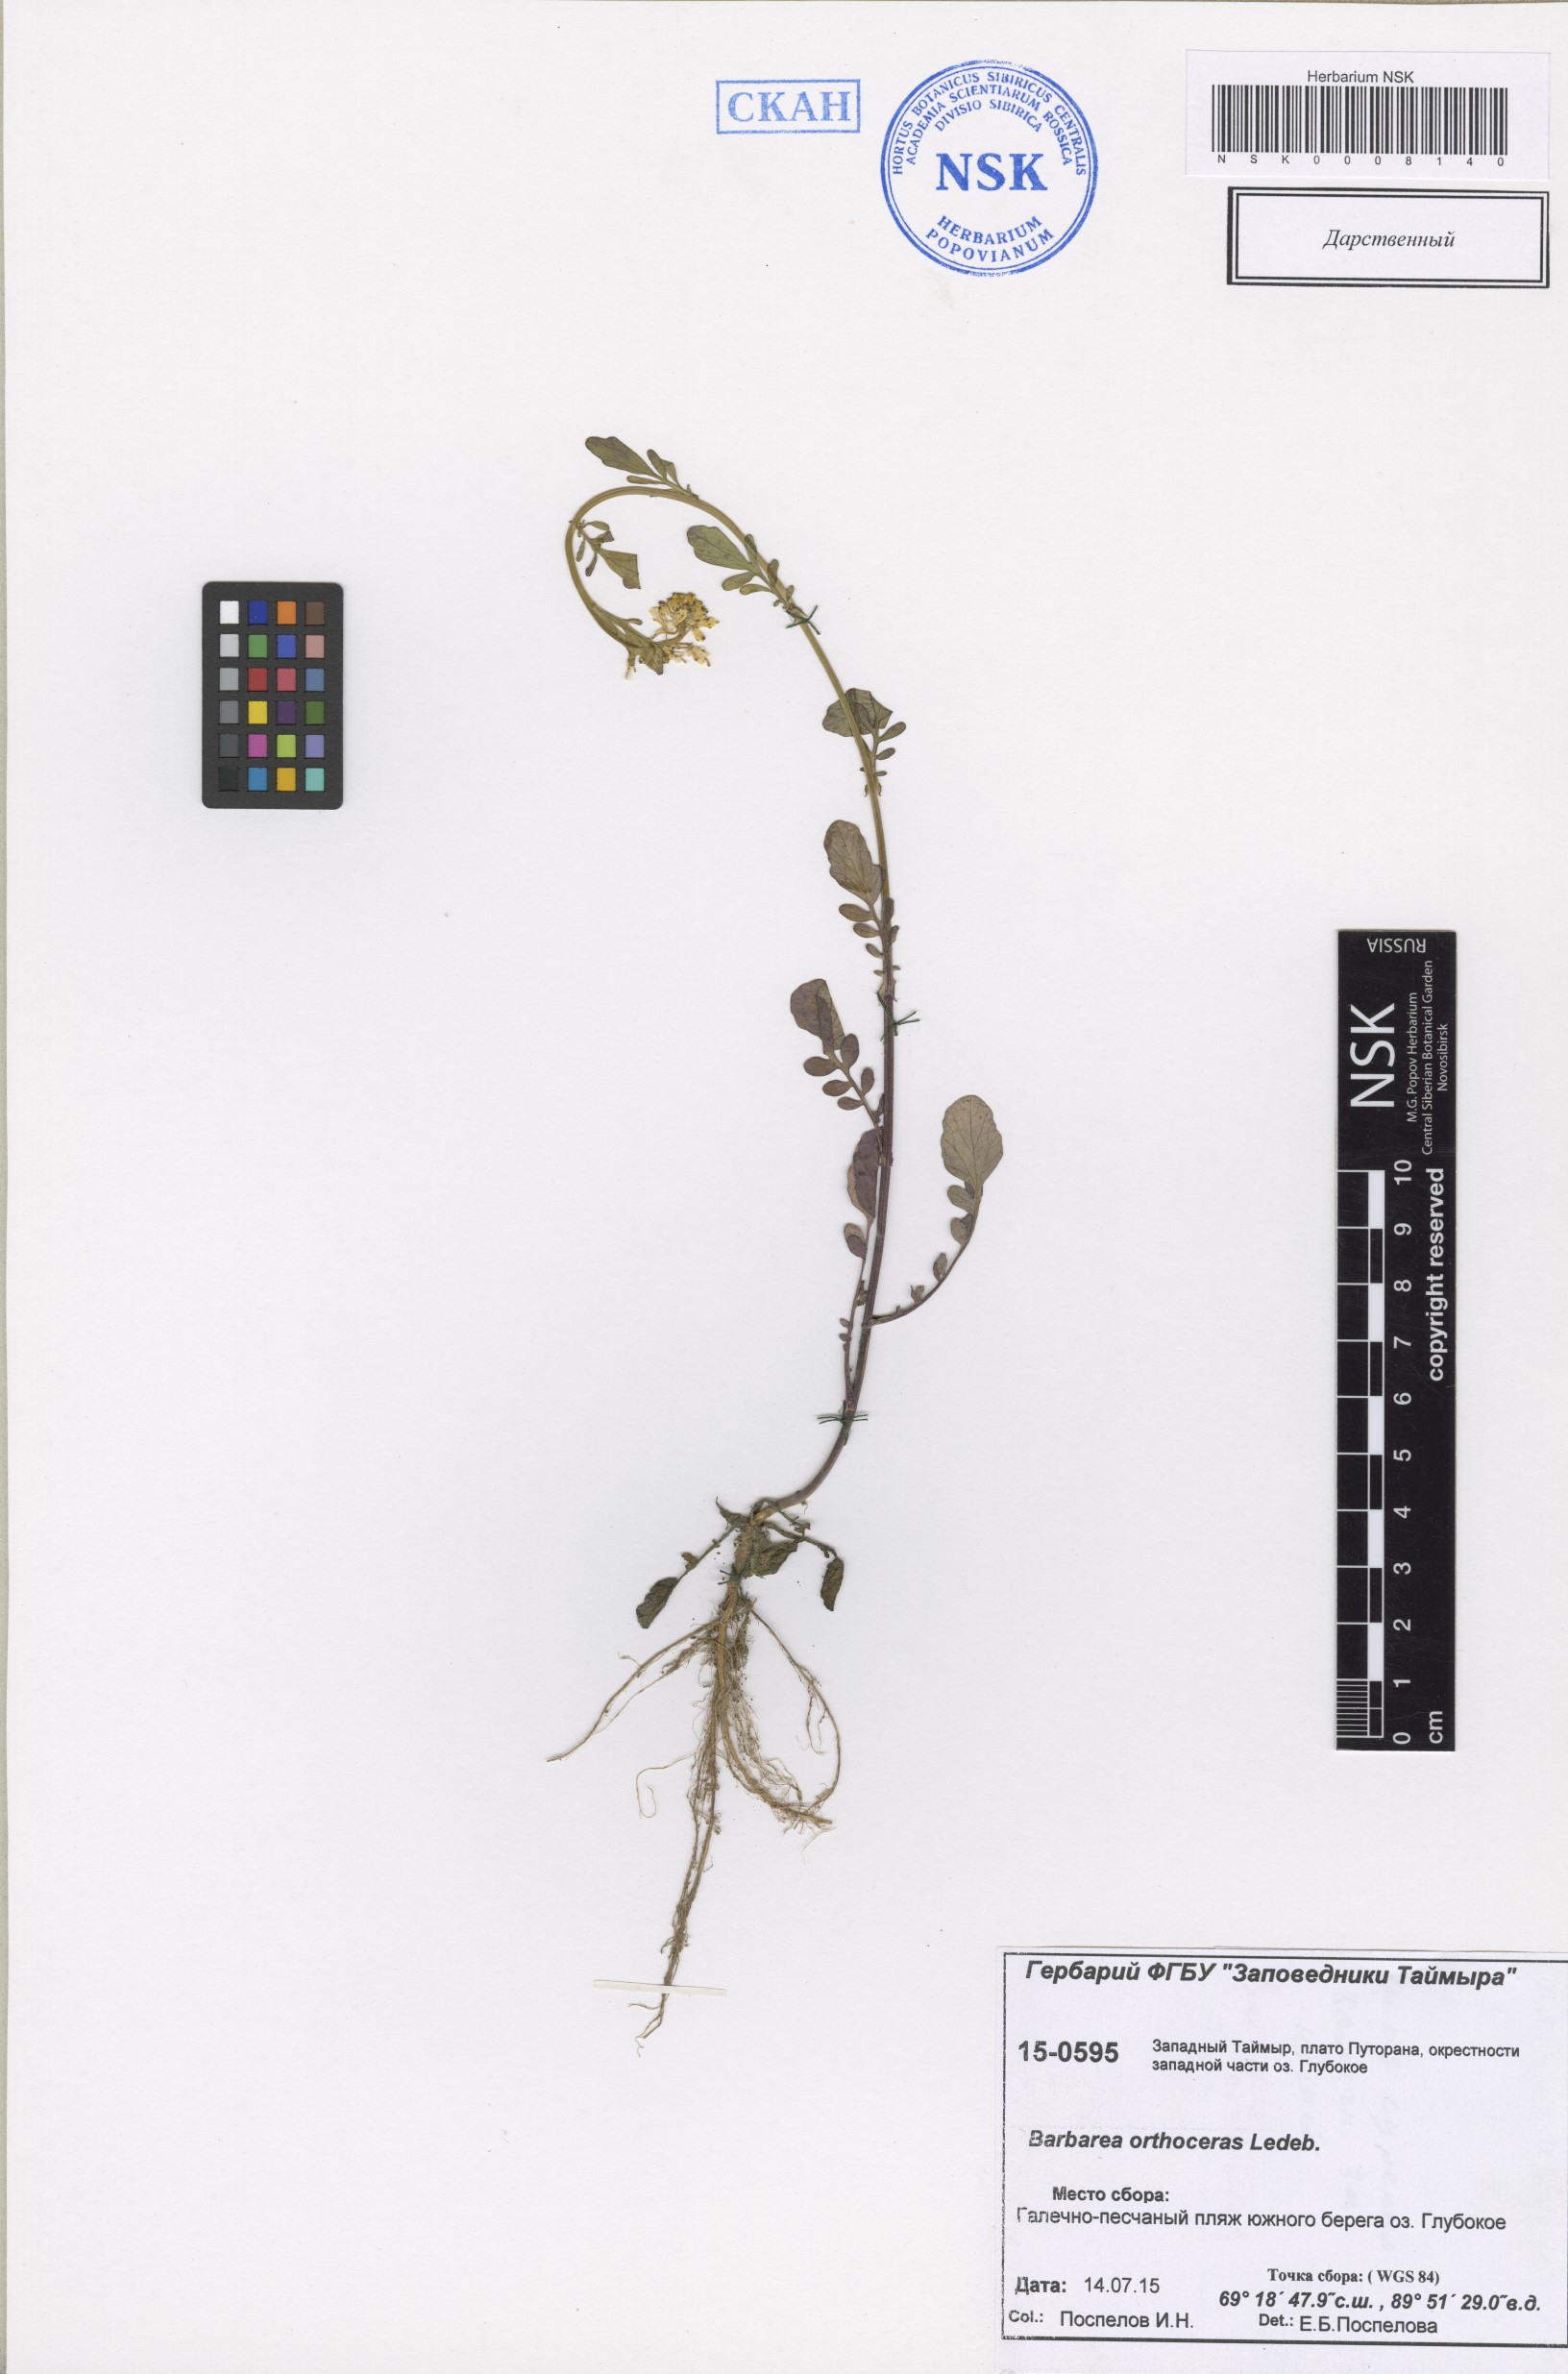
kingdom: Plantae
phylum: Tracheophyta
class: Magnoliopsida
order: Brassicales
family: Brassicaceae
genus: Barbarea
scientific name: Barbarea orthoceras
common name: American wintercress
